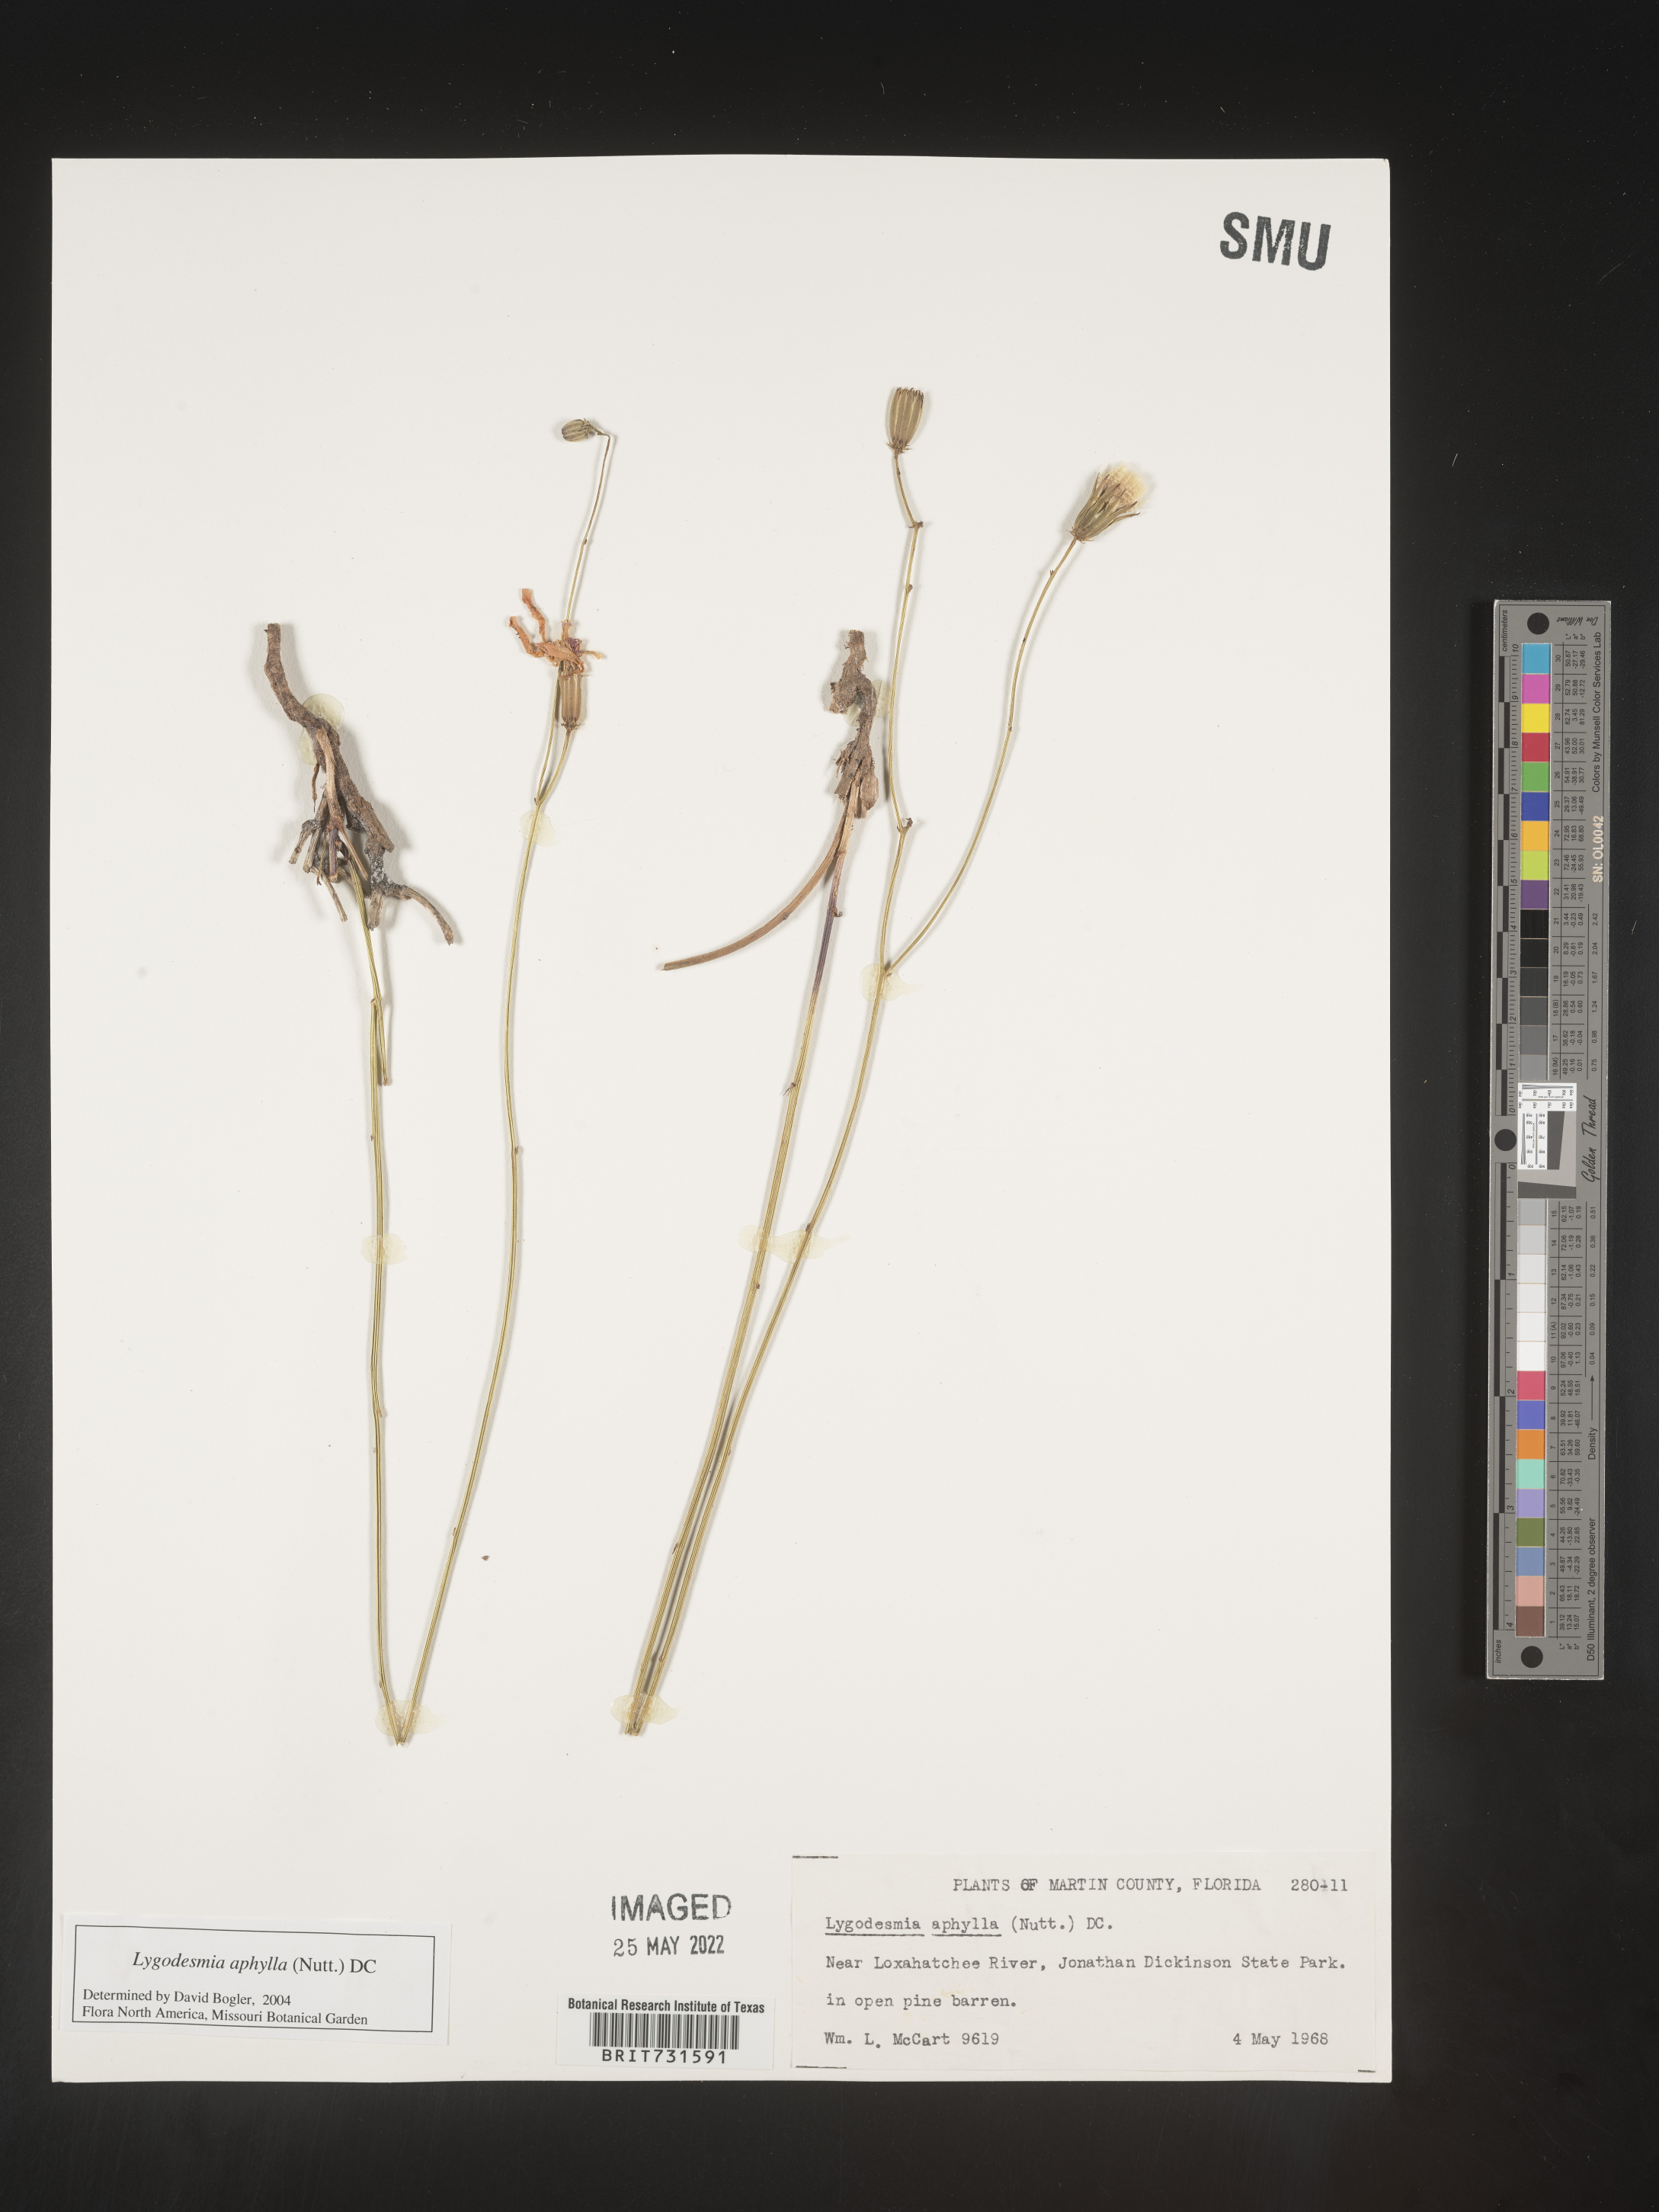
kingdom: Plantae
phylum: Tracheophyta
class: Magnoliopsida
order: Asterales
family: Asteraceae
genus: Lygodesmia
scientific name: Lygodesmia aphylla
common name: Rose-rush
